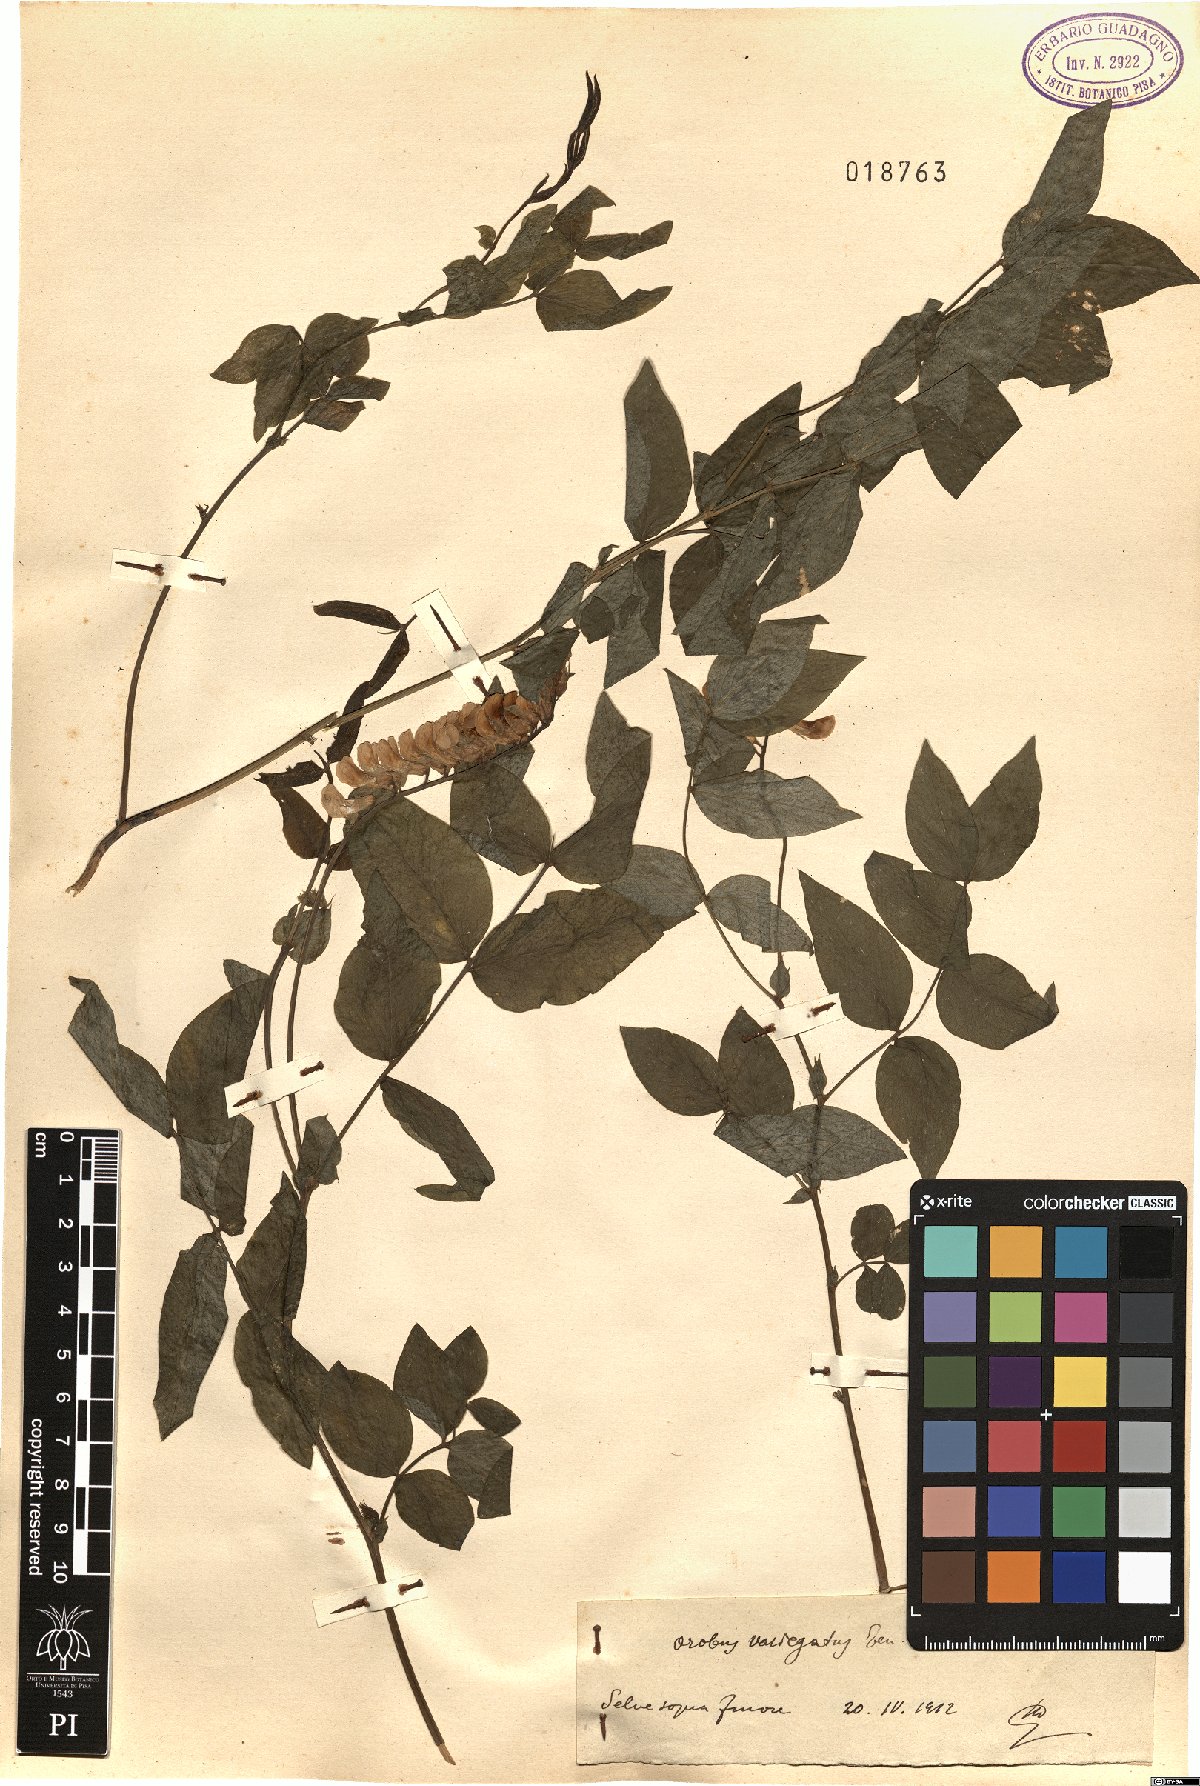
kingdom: Plantae
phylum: Tracheophyta
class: Magnoliopsida
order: Fabales
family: Fabaceae
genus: Lathyrus
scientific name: Lathyrus venetus
